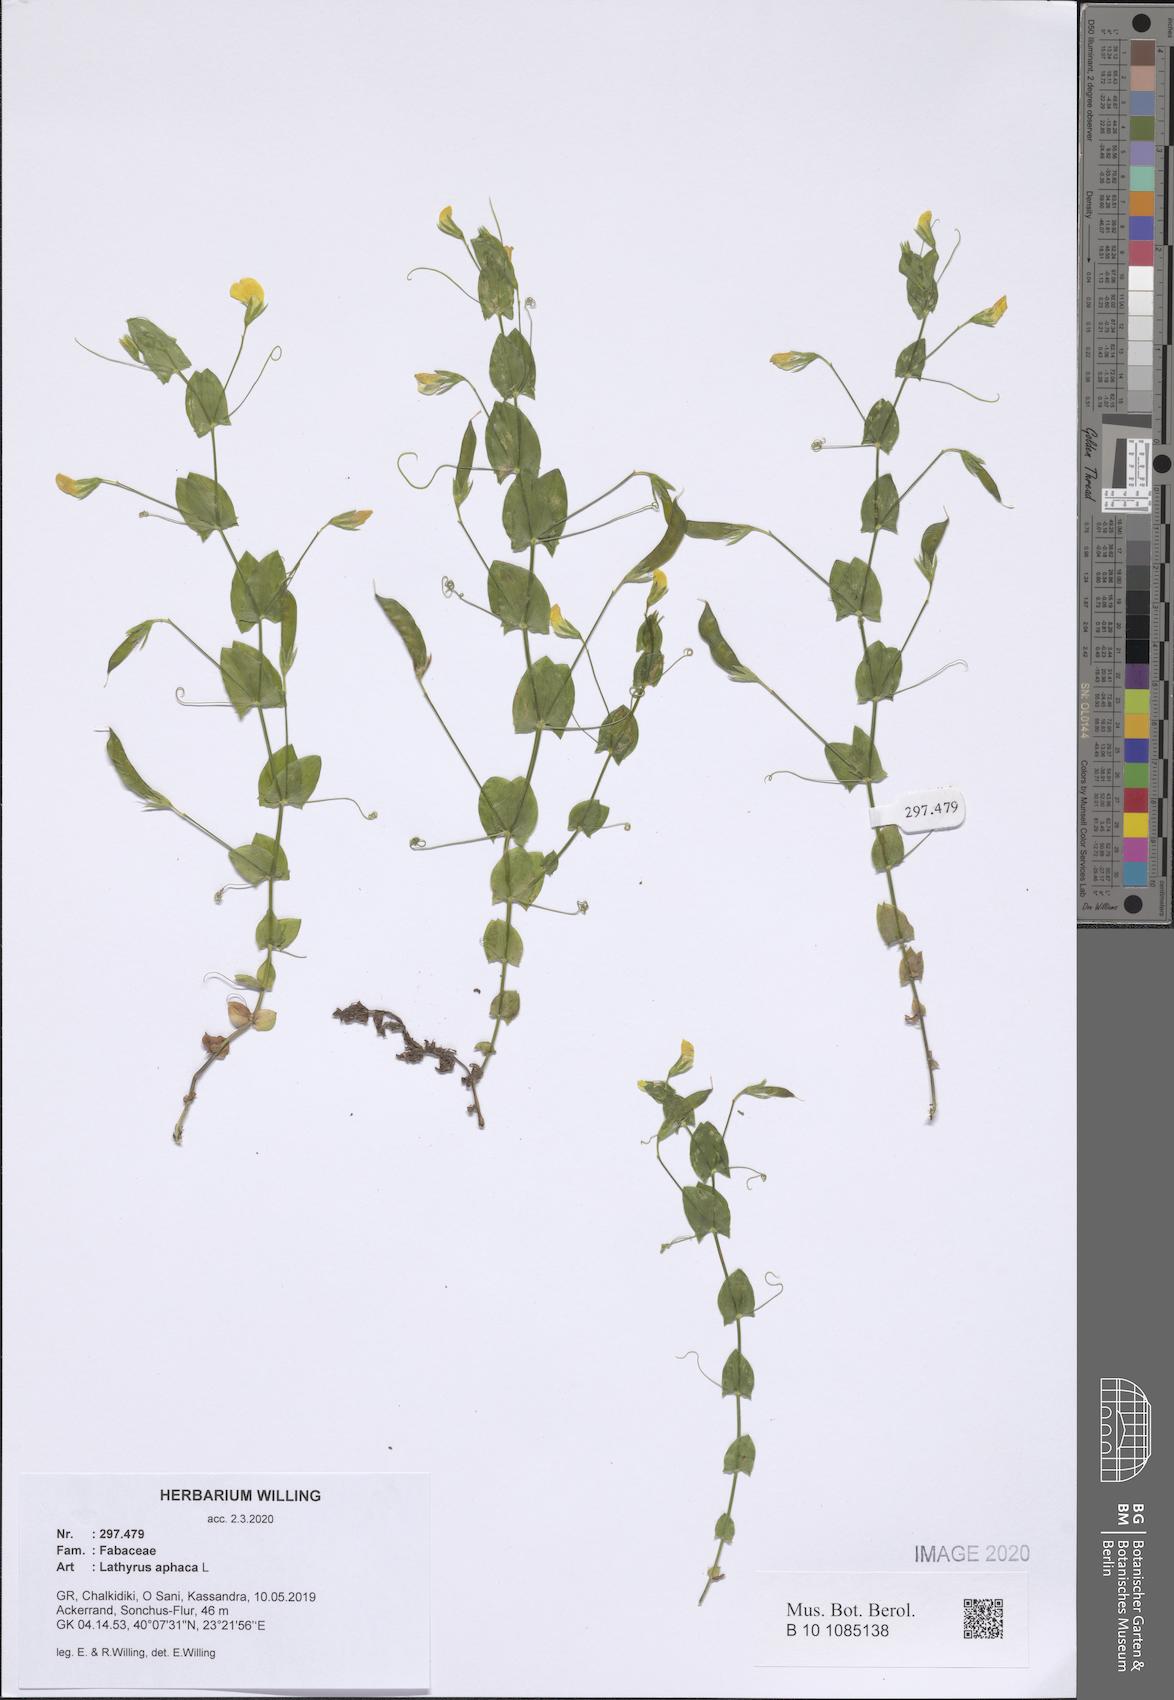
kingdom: Plantae
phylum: Tracheophyta
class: Magnoliopsida
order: Fabales
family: Fabaceae
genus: Lathyrus
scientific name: Lathyrus aphaca
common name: Yellow vetchling
